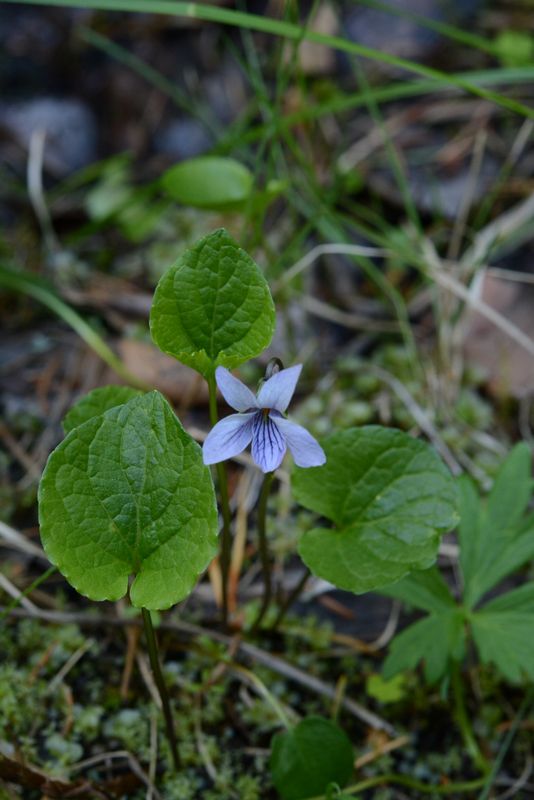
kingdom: Plantae
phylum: Tracheophyta
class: Magnoliopsida
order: Malpighiales
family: Violaceae
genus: Viola
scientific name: Viola epipsila
